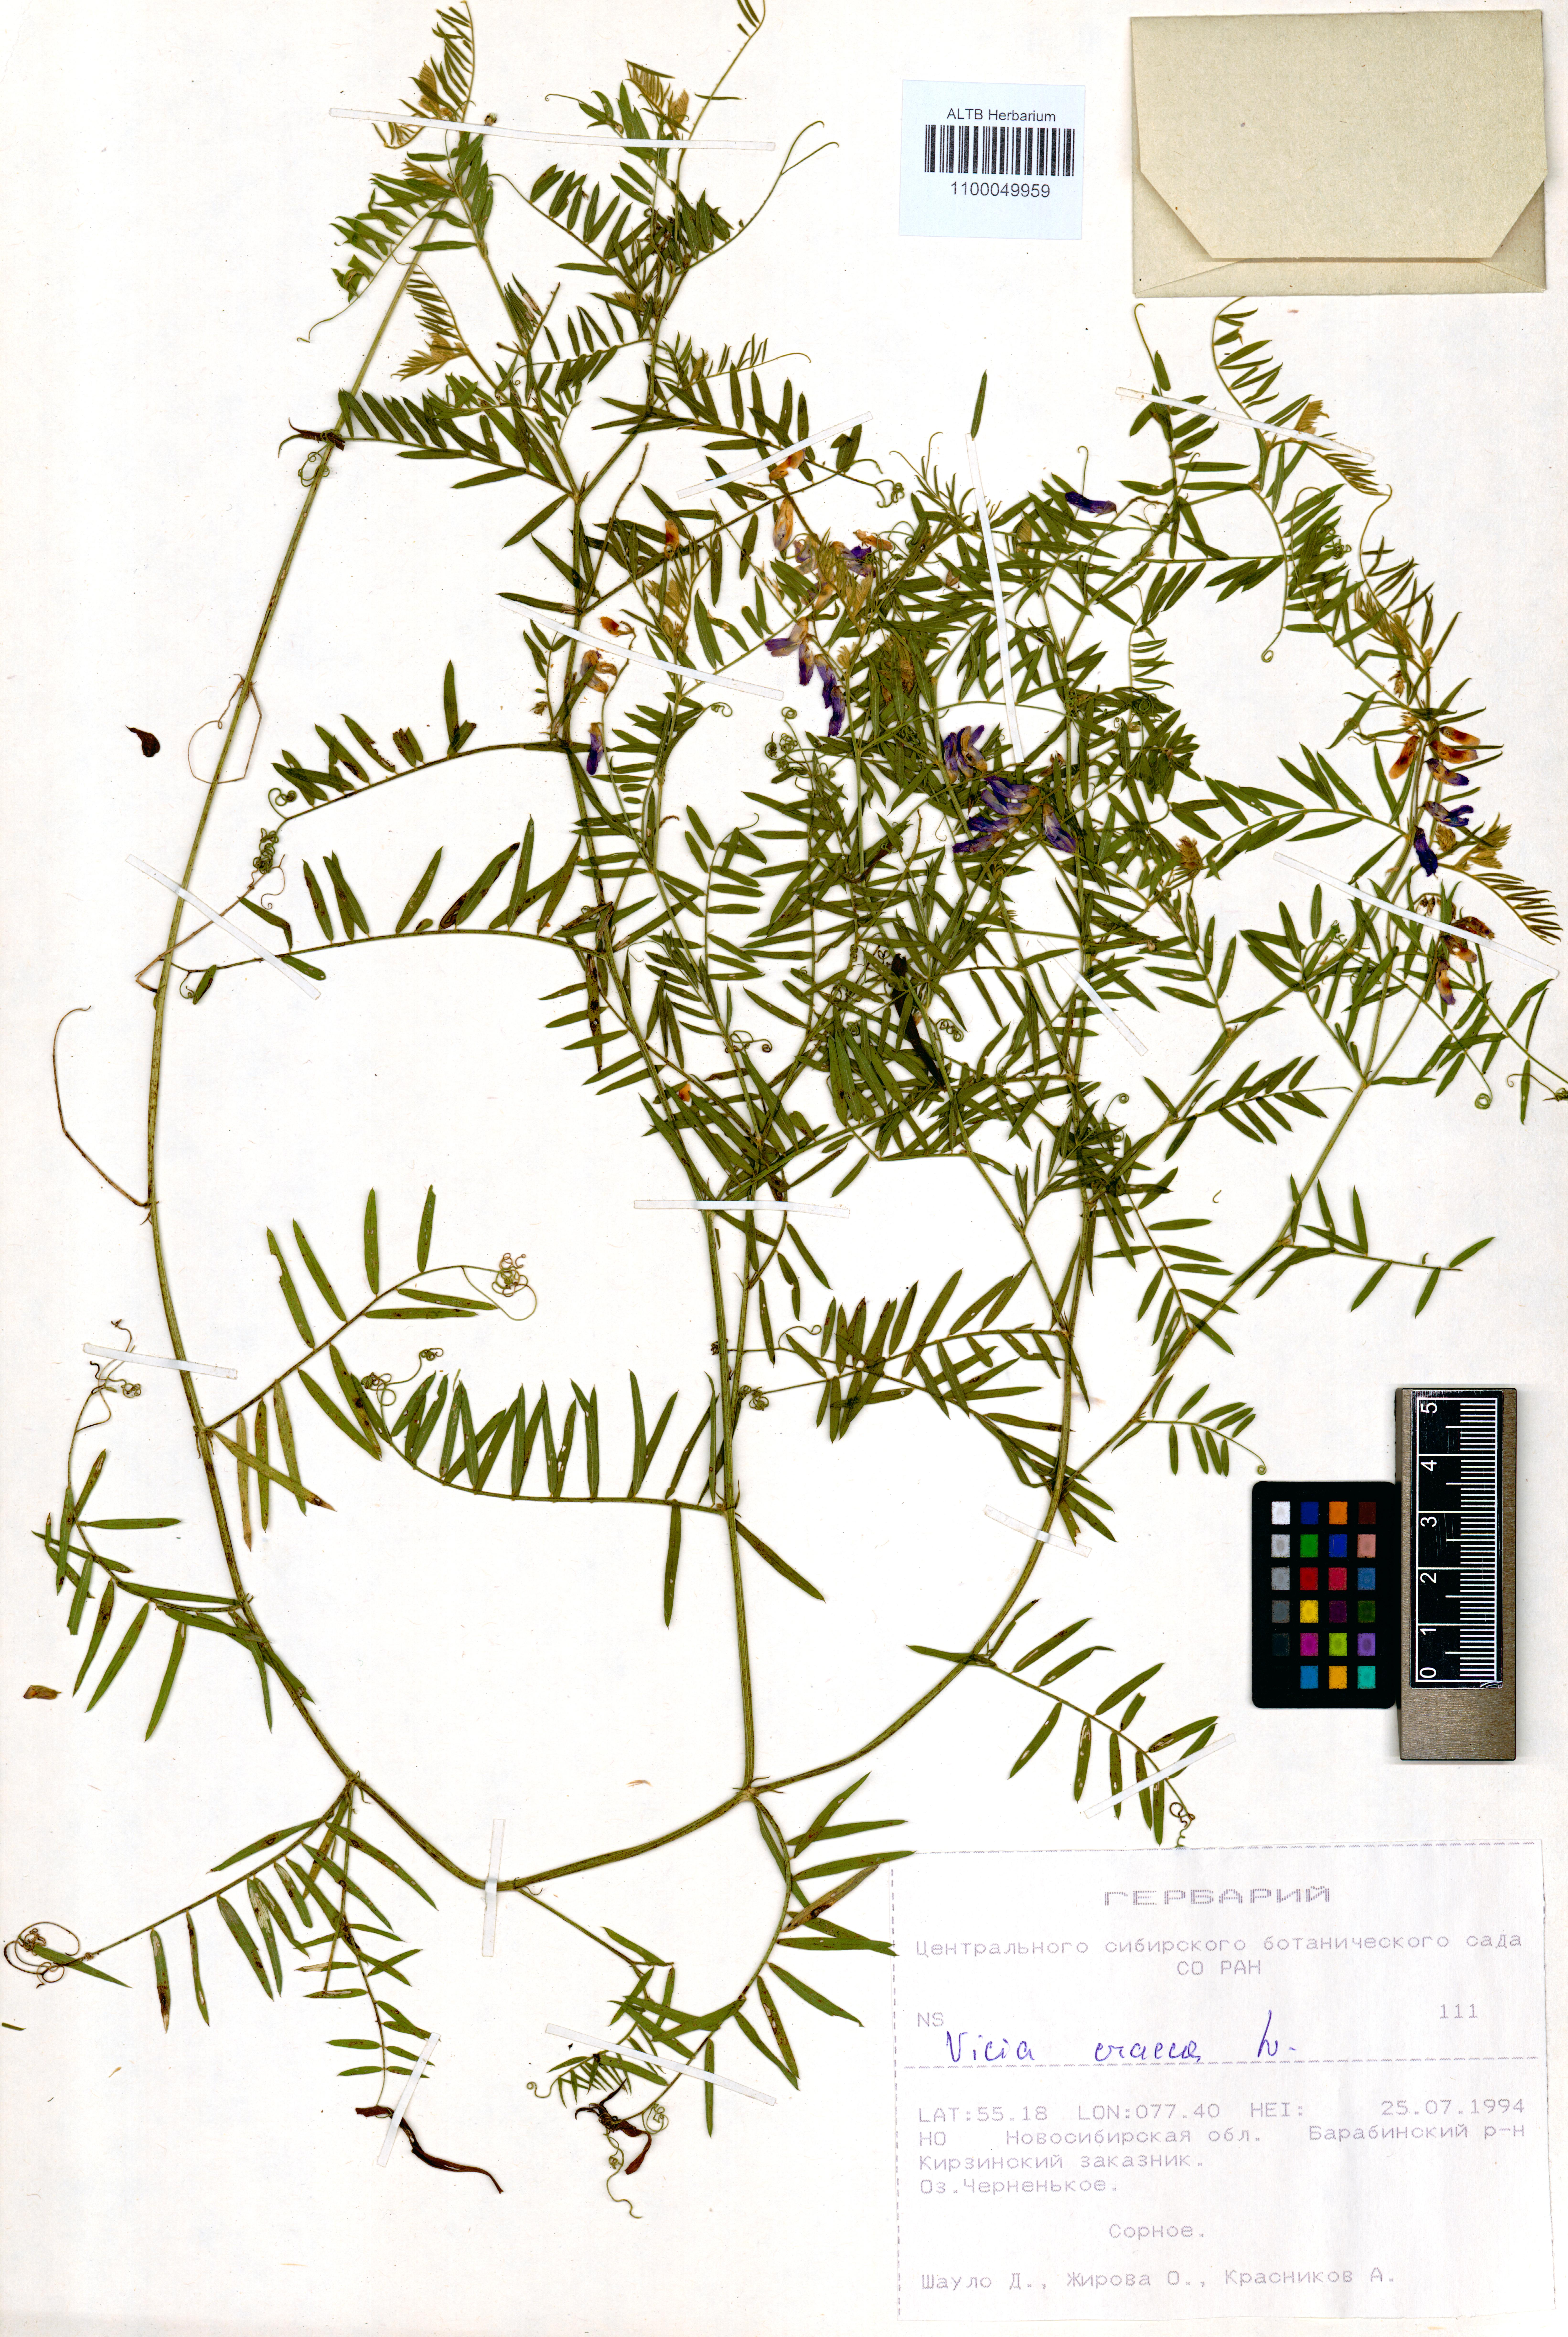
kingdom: Plantae
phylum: Tracheophyta
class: Magnoliopsida
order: Fabales
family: Fabaceae
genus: Vicia
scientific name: Vicia cracca
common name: Bird vetch
